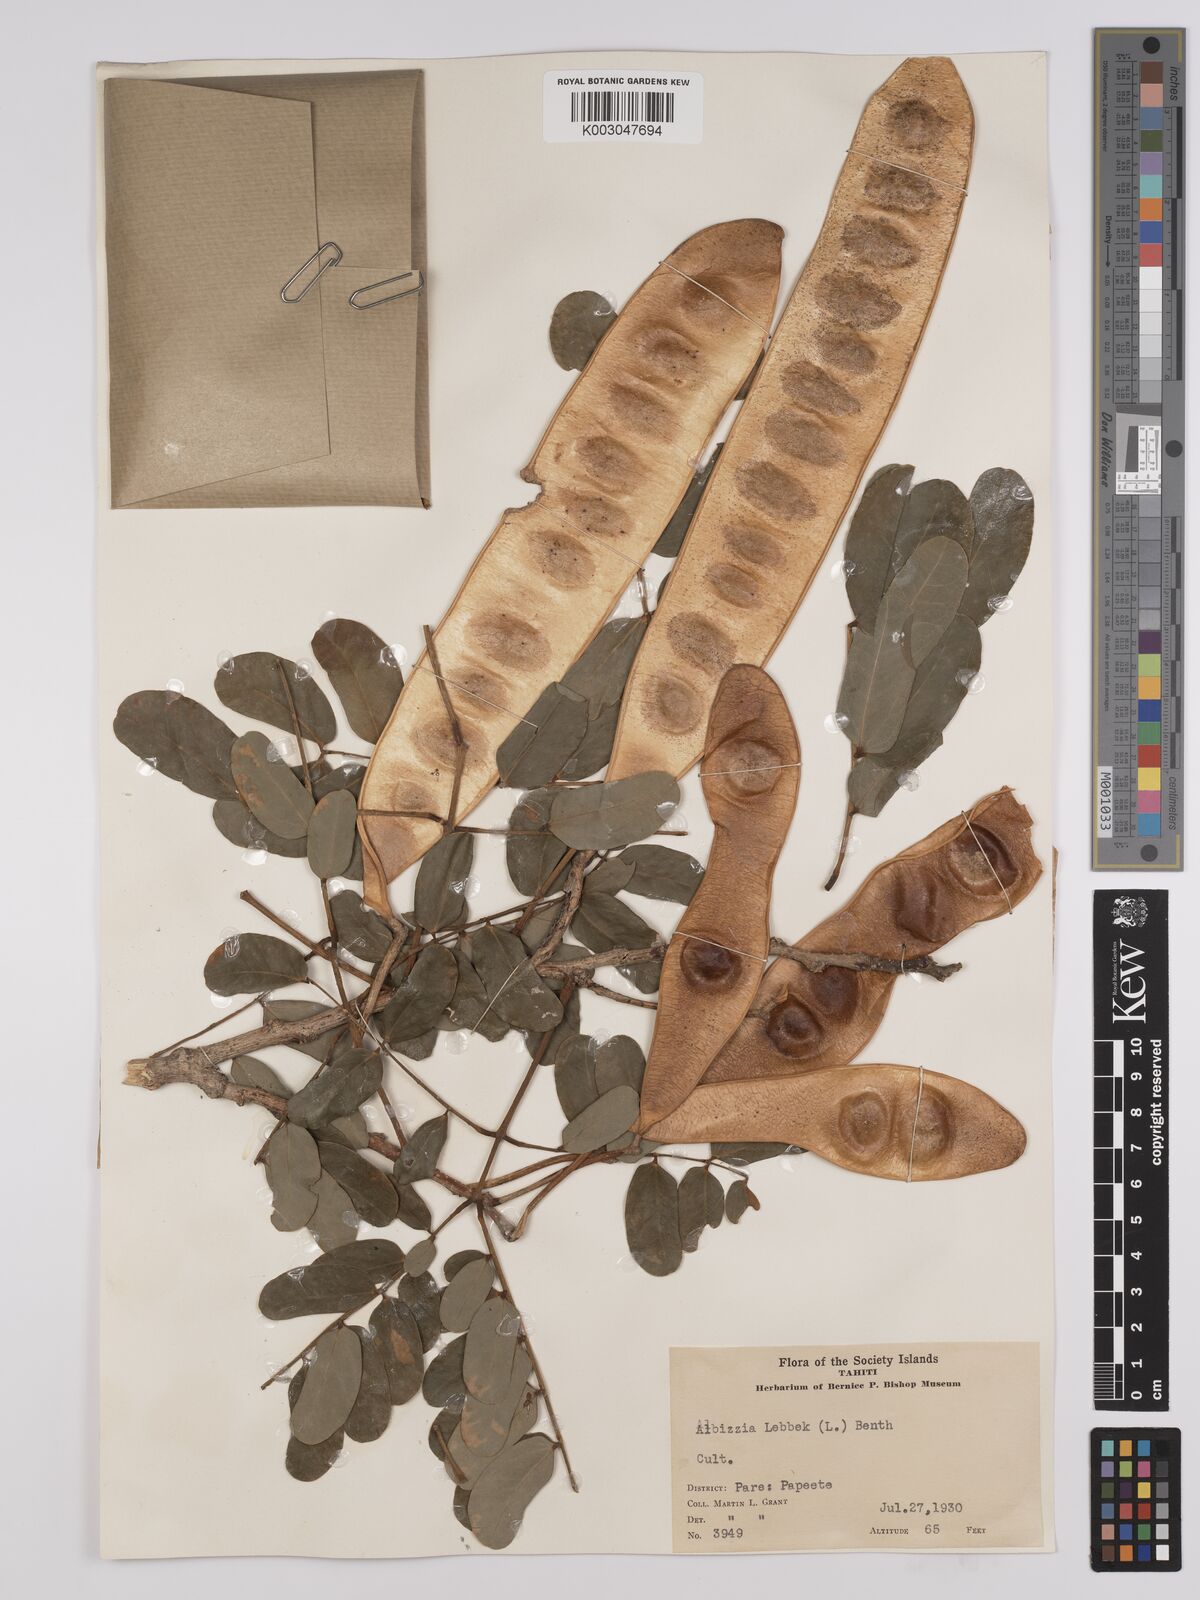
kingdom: Plantae
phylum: Tracheophyta
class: Magnoliopsida
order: Fabales
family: Fabaceae
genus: Albizia
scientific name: Albizia lebbeck
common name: Woman's tongue
